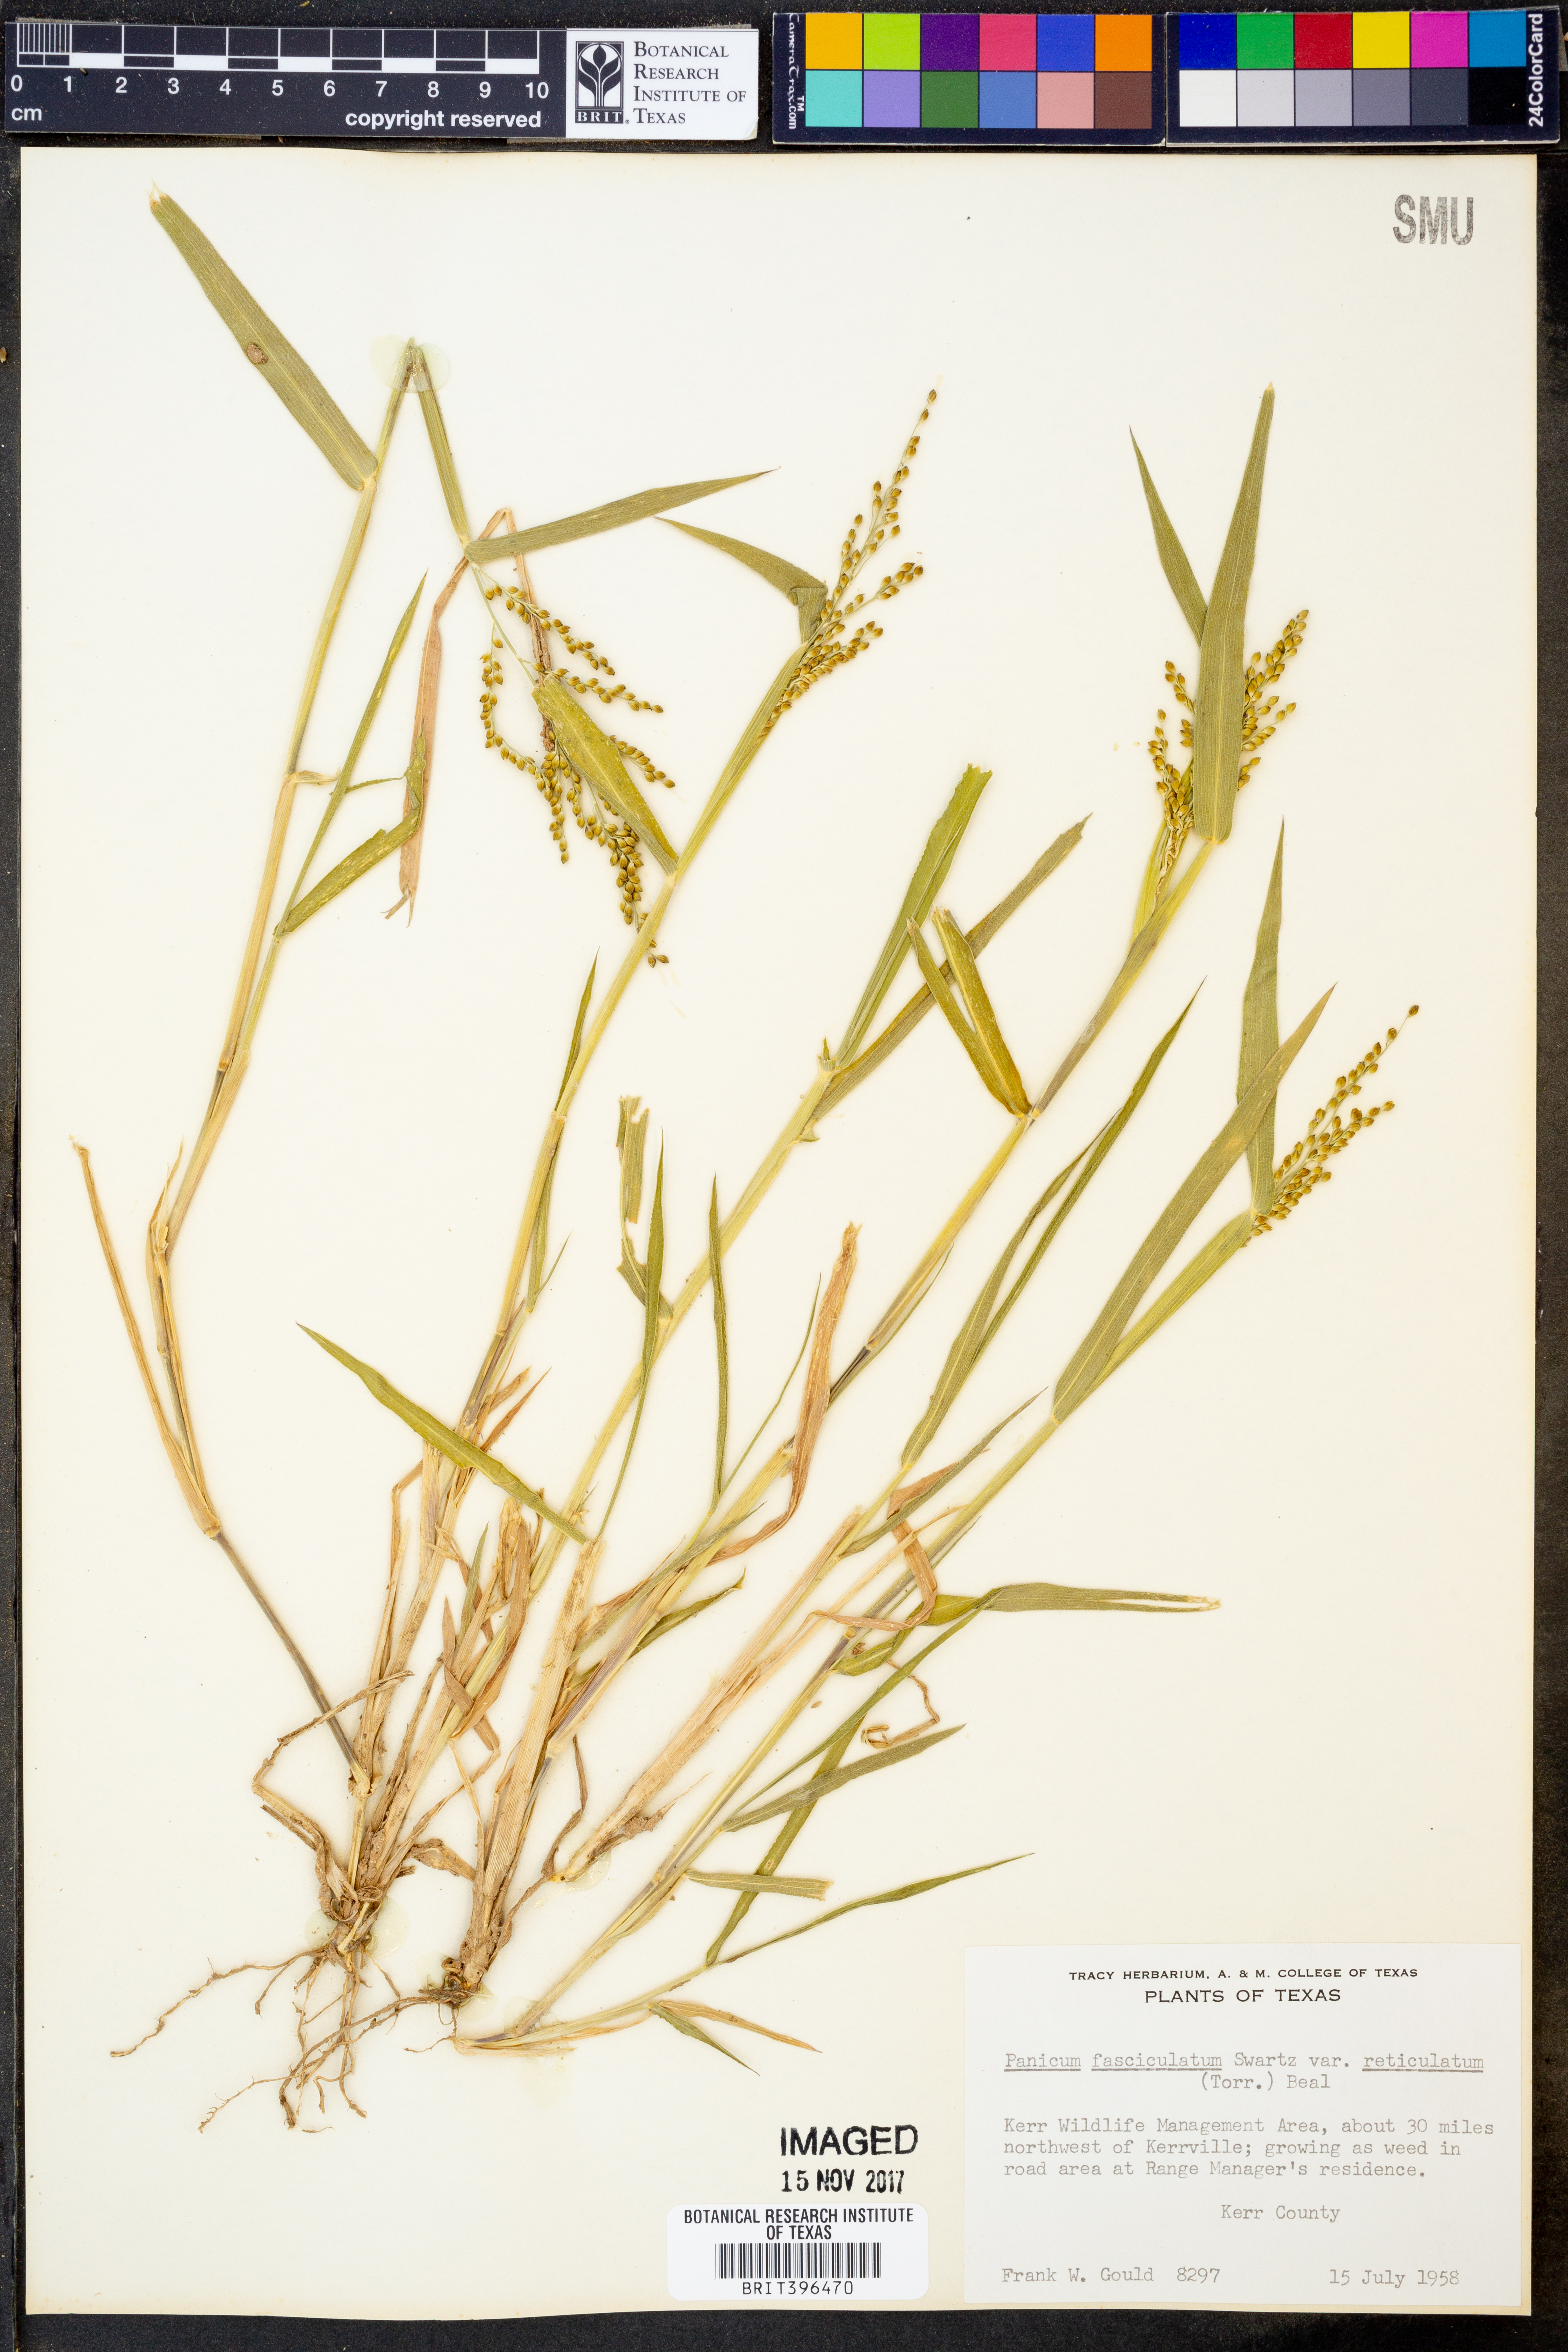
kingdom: Plantae
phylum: Tracheophyta
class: Liliopsida
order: Poales
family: Poaceae
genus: Urochloa
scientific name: Urochloa fusca
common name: Browntop signal grass
